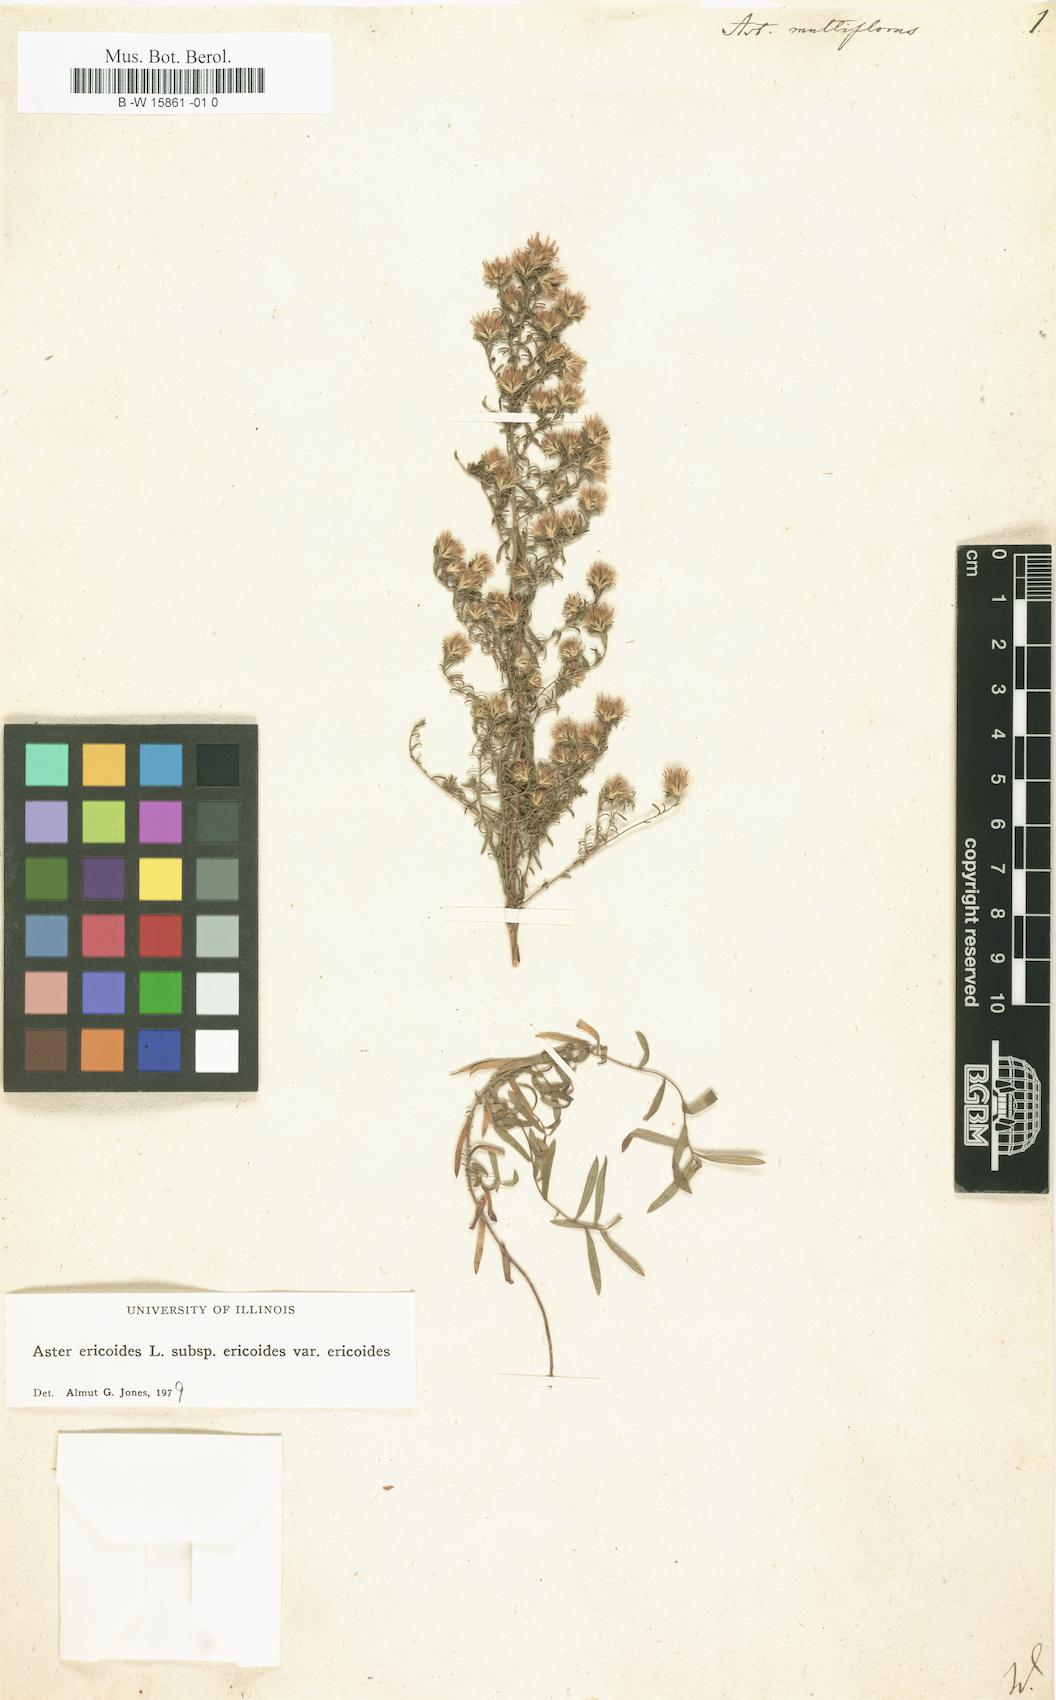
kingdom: Plantae
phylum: Tracheophyta
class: Magnoliopsida
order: Asterales
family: Asteraceae
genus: Symphyotrichum
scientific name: Symphyotrichum ericoides
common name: Heath aster
